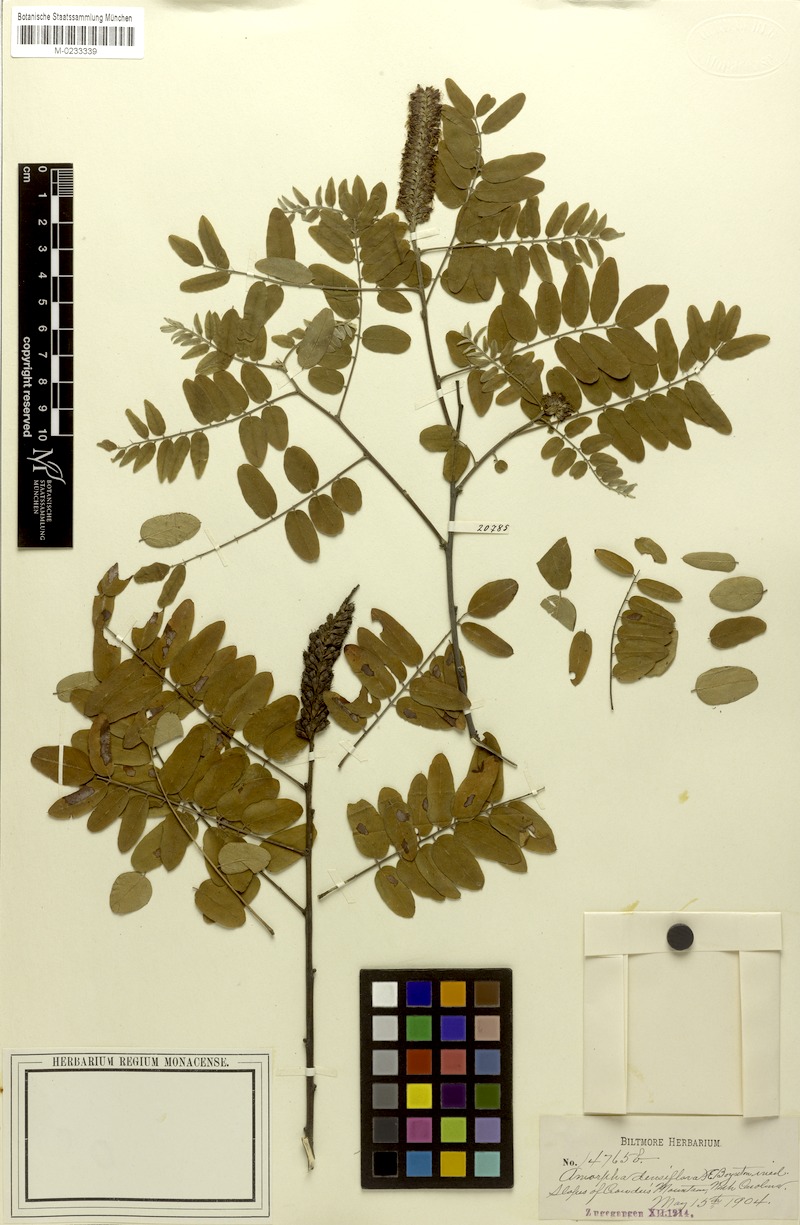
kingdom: Plantae
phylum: Tracheophyta
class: Magnoliopsida
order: Fabales
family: Fabaceae
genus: Amorpha
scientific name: Amorpha schwerinii
